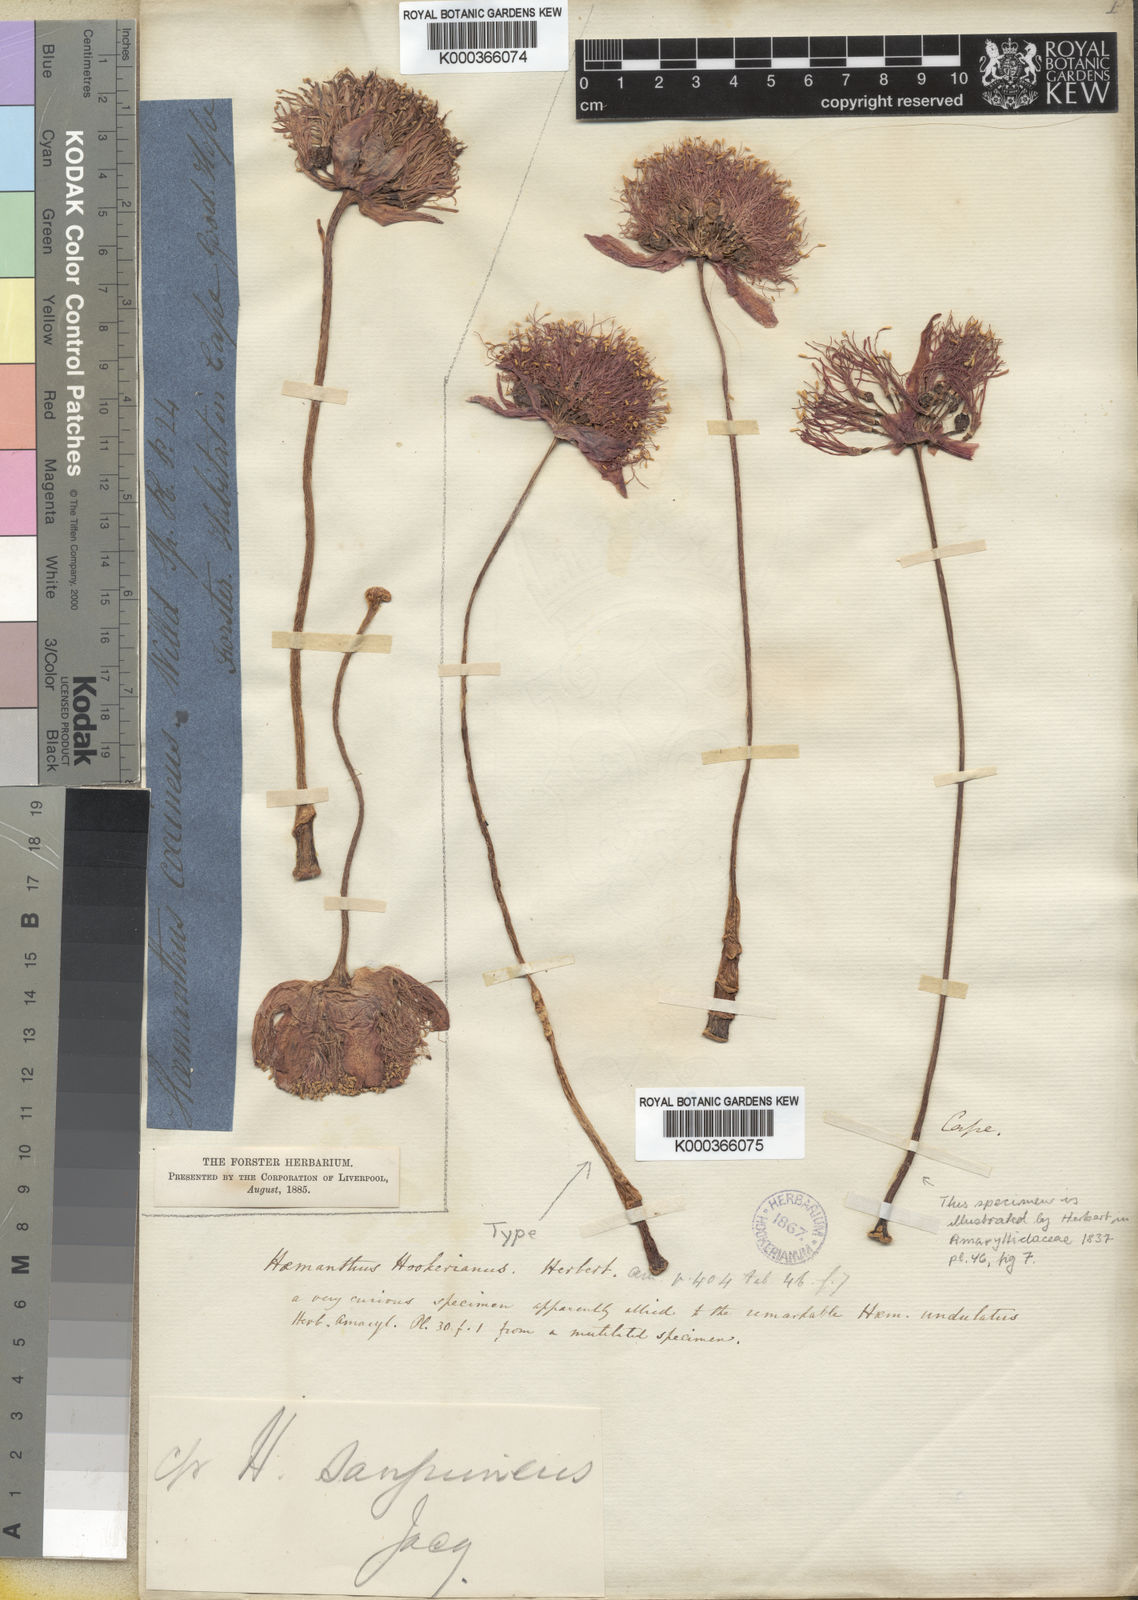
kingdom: Plantae
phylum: Tracheophyta
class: Liliopsida
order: Asparagales
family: Amaryllidaceae
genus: Haemanthus
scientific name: Haemanthus coccineus
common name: Cape-tulip
